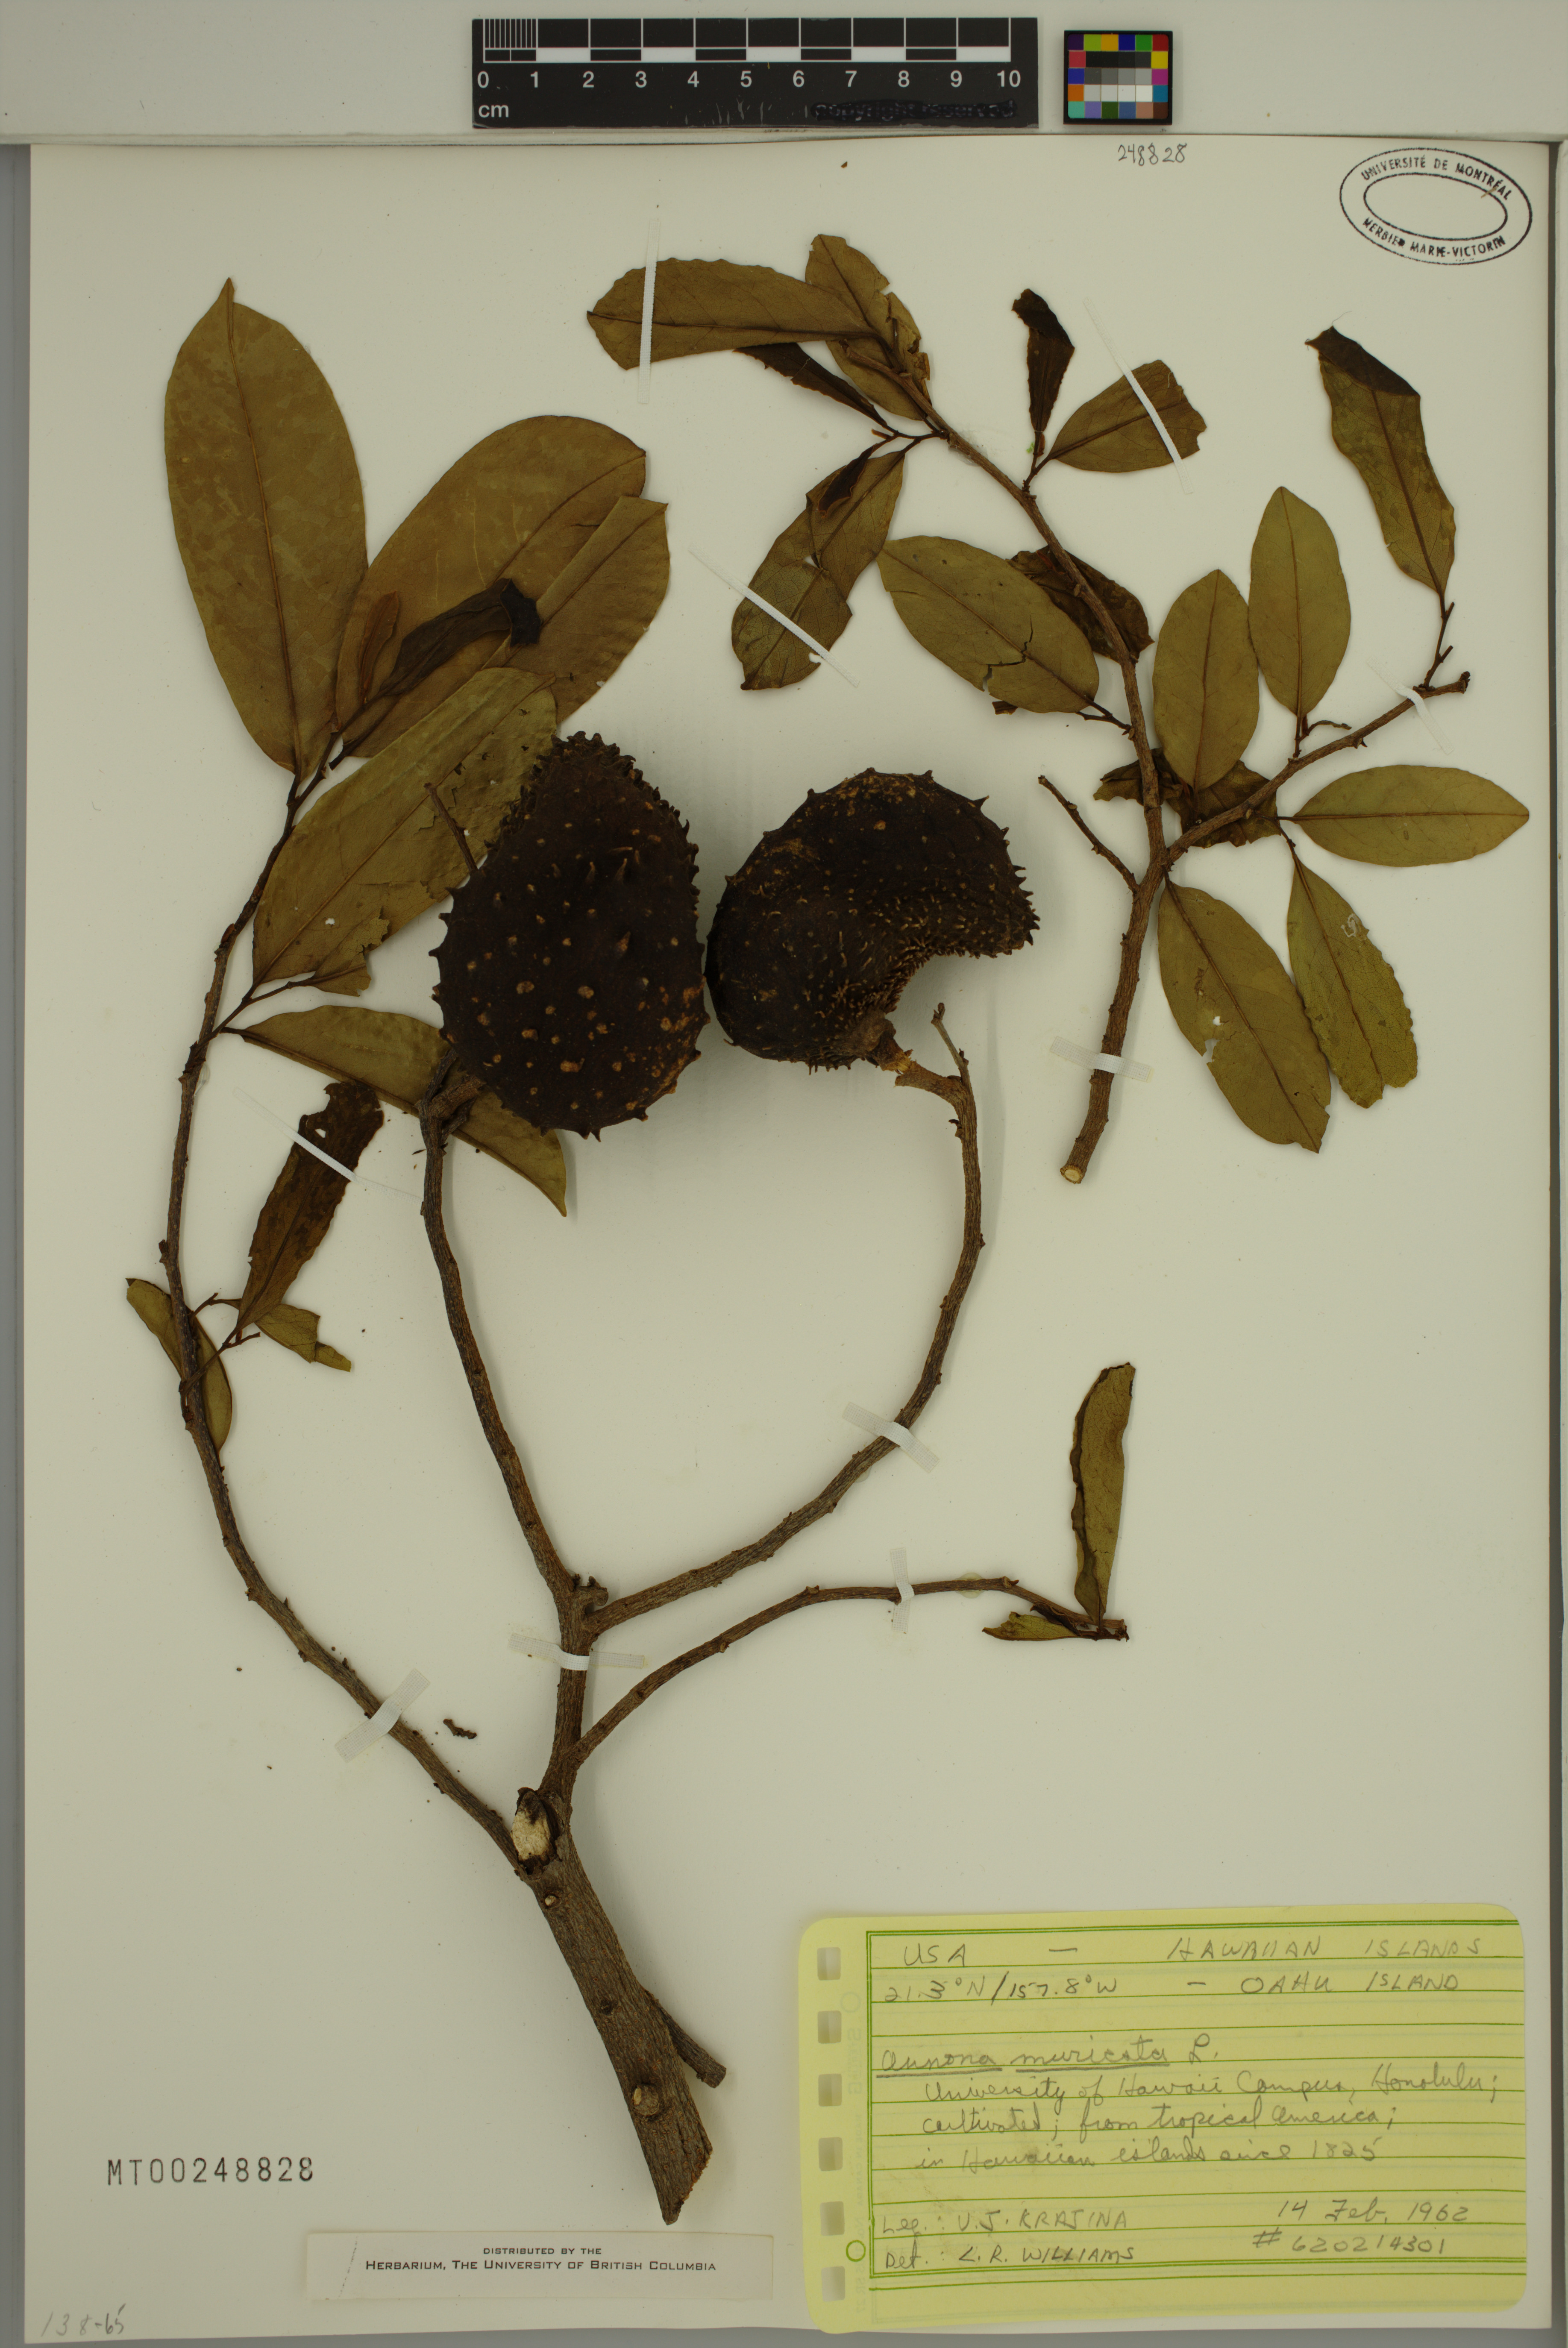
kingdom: Plantae
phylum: Tracheophyta
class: Magnoliopsida
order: Magnoliales
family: Annonaceae
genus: Annona
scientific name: Annona muricata
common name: Soursop
